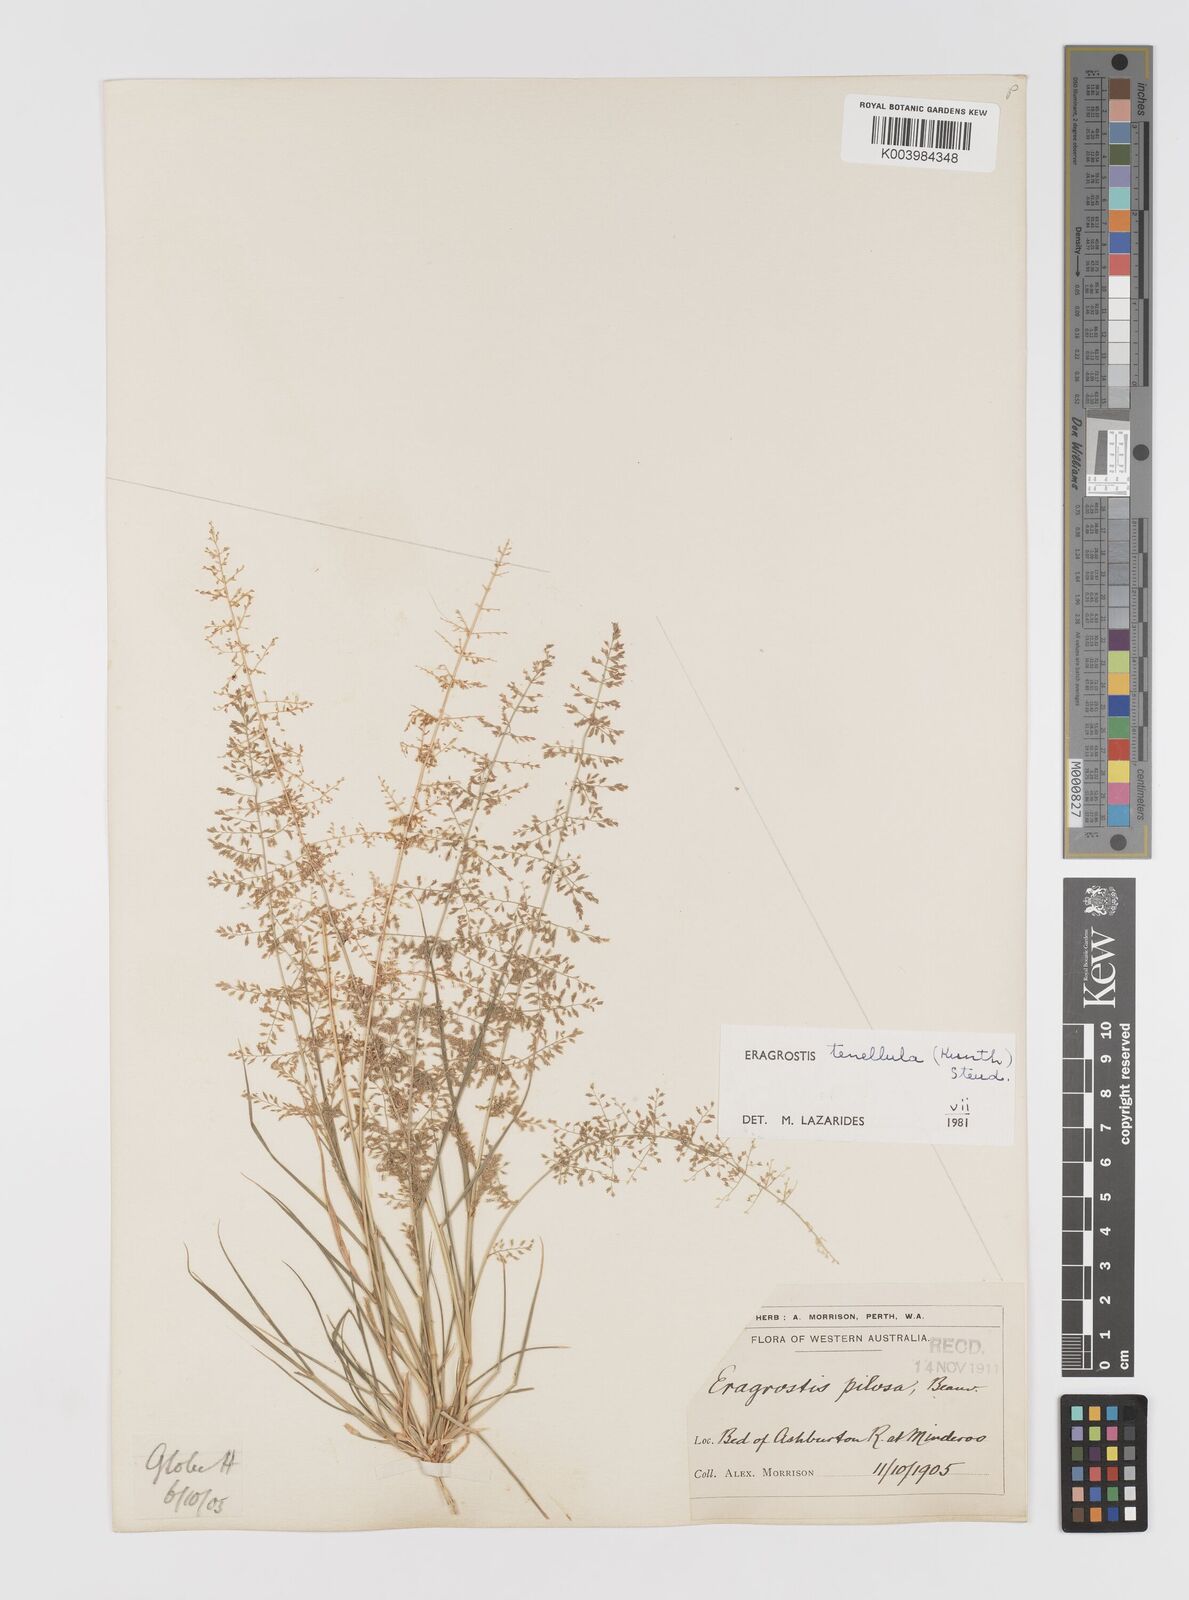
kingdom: Plantae
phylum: Tracheophyta
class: Liliopsida
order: Poales
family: Poaceae
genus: Eragrostis
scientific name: Eragrostis tenellula
